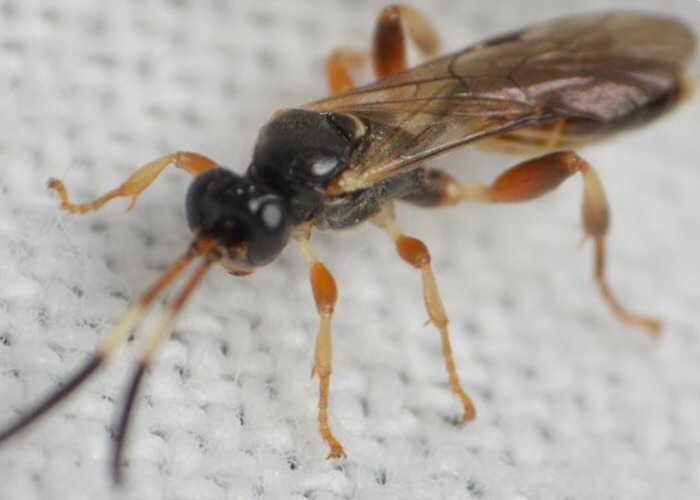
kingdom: Animalia
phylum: Arthropoda
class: Insecta
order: Hymenoptera
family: Ichneumonidae
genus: Homotherus
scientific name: Homotherus varipes
